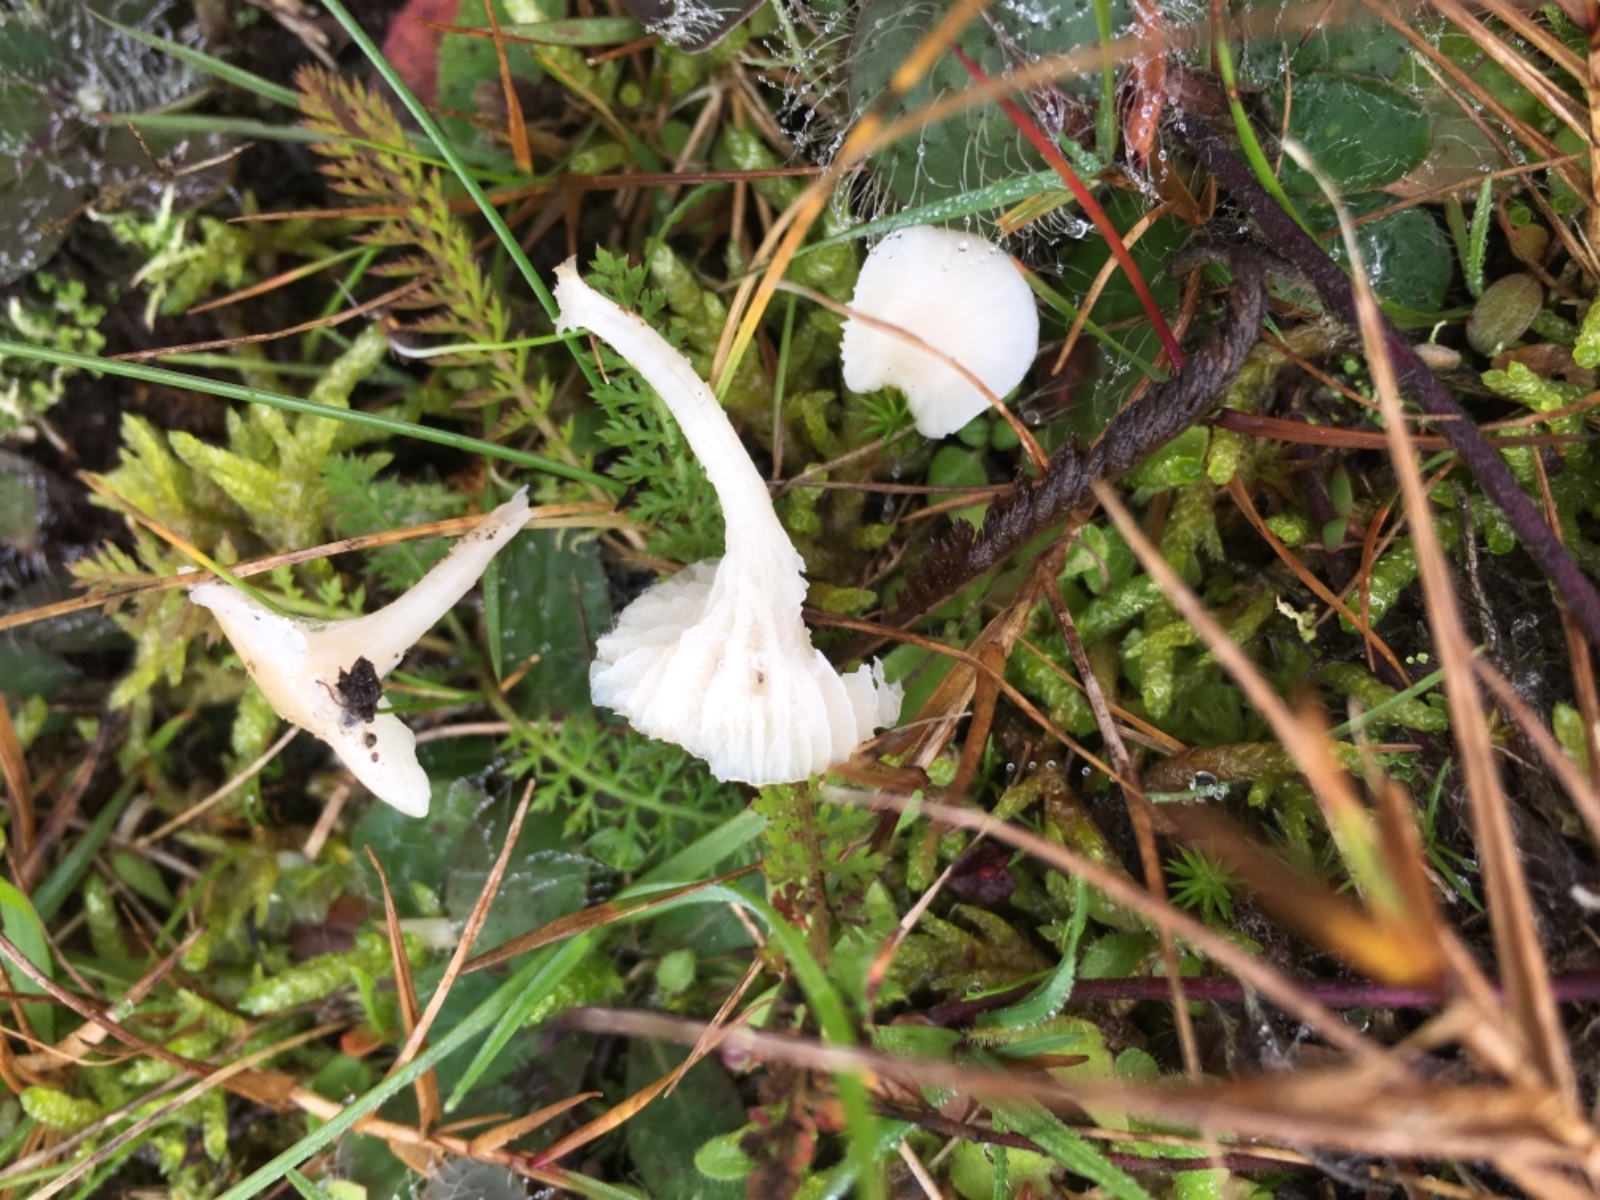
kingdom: Fungi
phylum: Basidiomycota
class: Agaricomycetes
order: Agaricales
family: Hygrophoraceae
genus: Cuphophyllus
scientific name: Cuphophyllus virgineus
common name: snehvid vokshat
